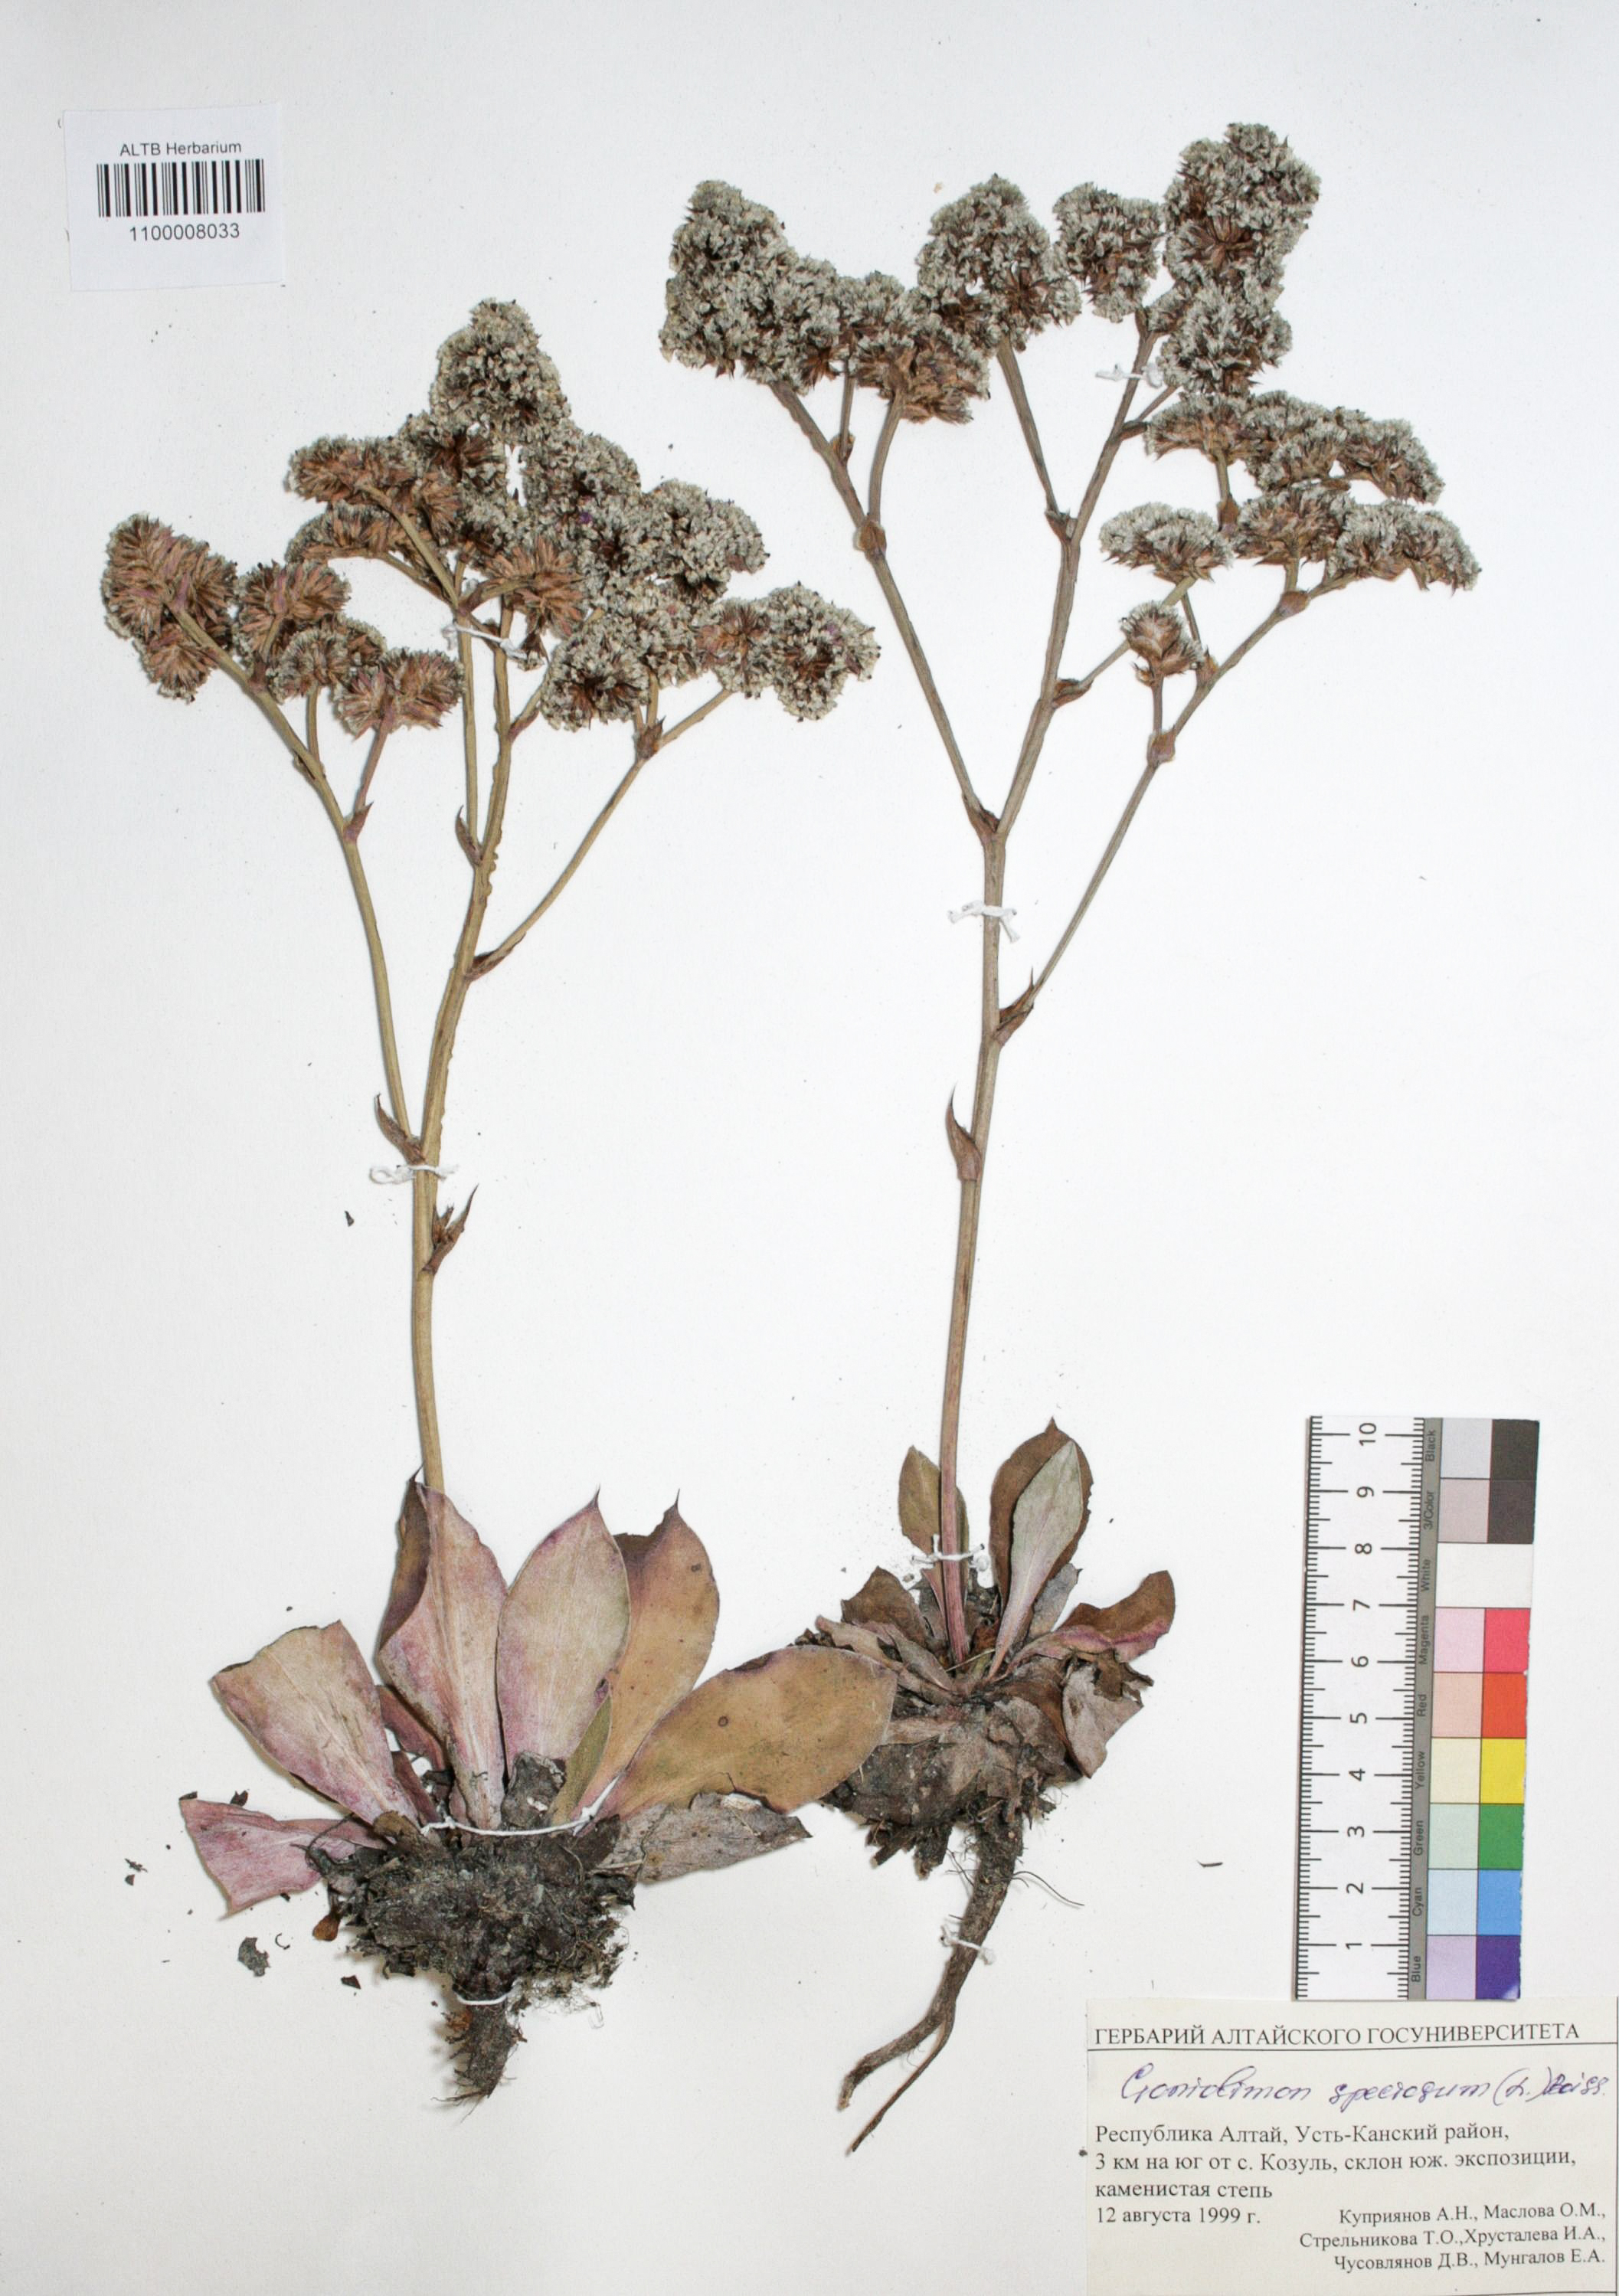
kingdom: Plantae
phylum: Tracheophyta
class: Magnoliopsida
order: Caryophyllales
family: Plumbaginaceae
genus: Goniolimon
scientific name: Goniolimon speciosum
